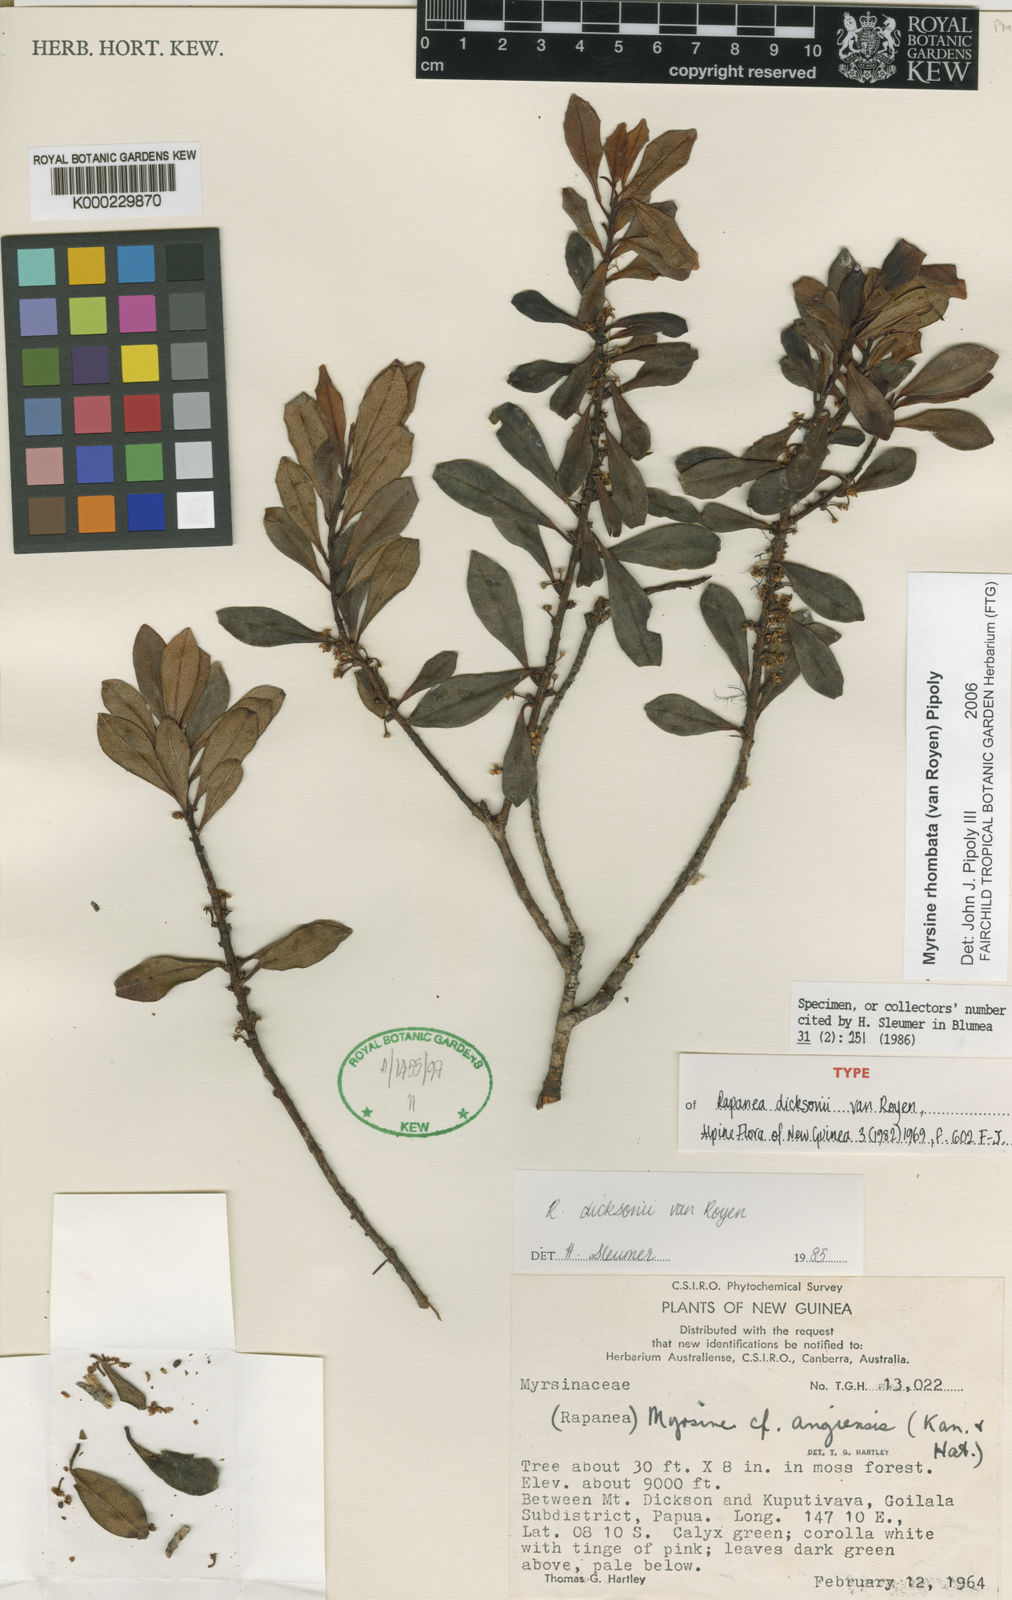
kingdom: Plantae
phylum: Tracheophyta
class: Magnoliopsida
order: Ericales
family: Primulaceae
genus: Myrsine
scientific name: Myrsine rhombata
